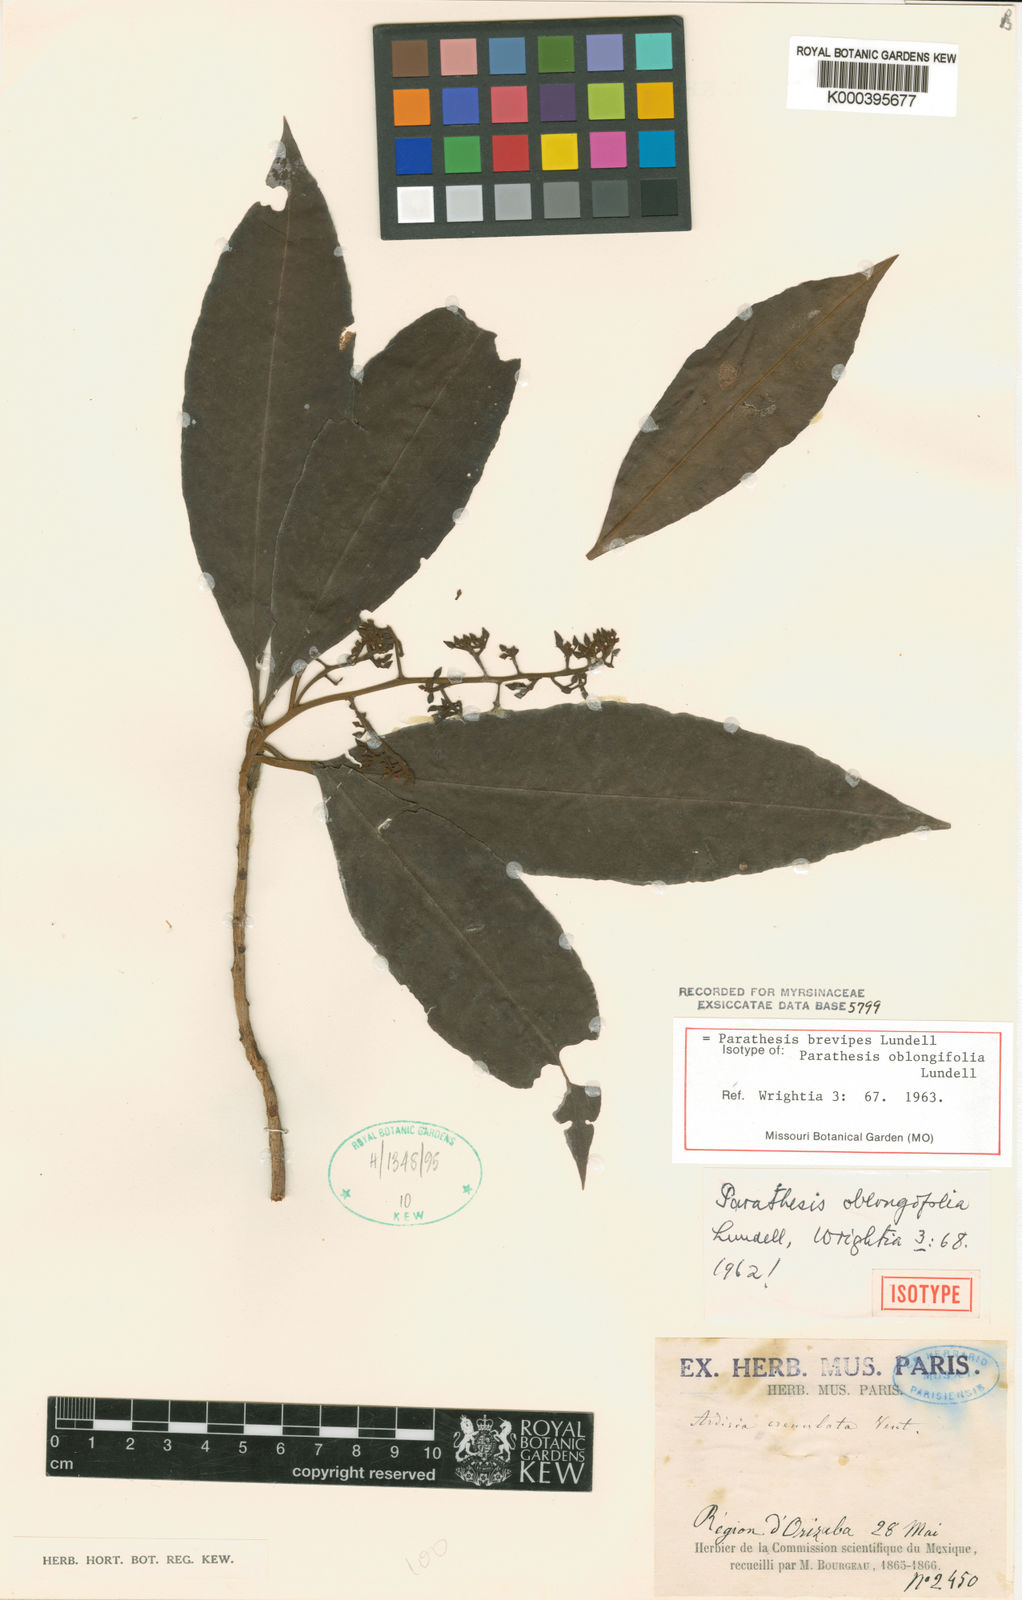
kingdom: Plantae
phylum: Tracheophyta
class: Magnoliopsida
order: Ericales
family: Primulaceae
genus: Parathesis
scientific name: Parathesis donnell-smithii
